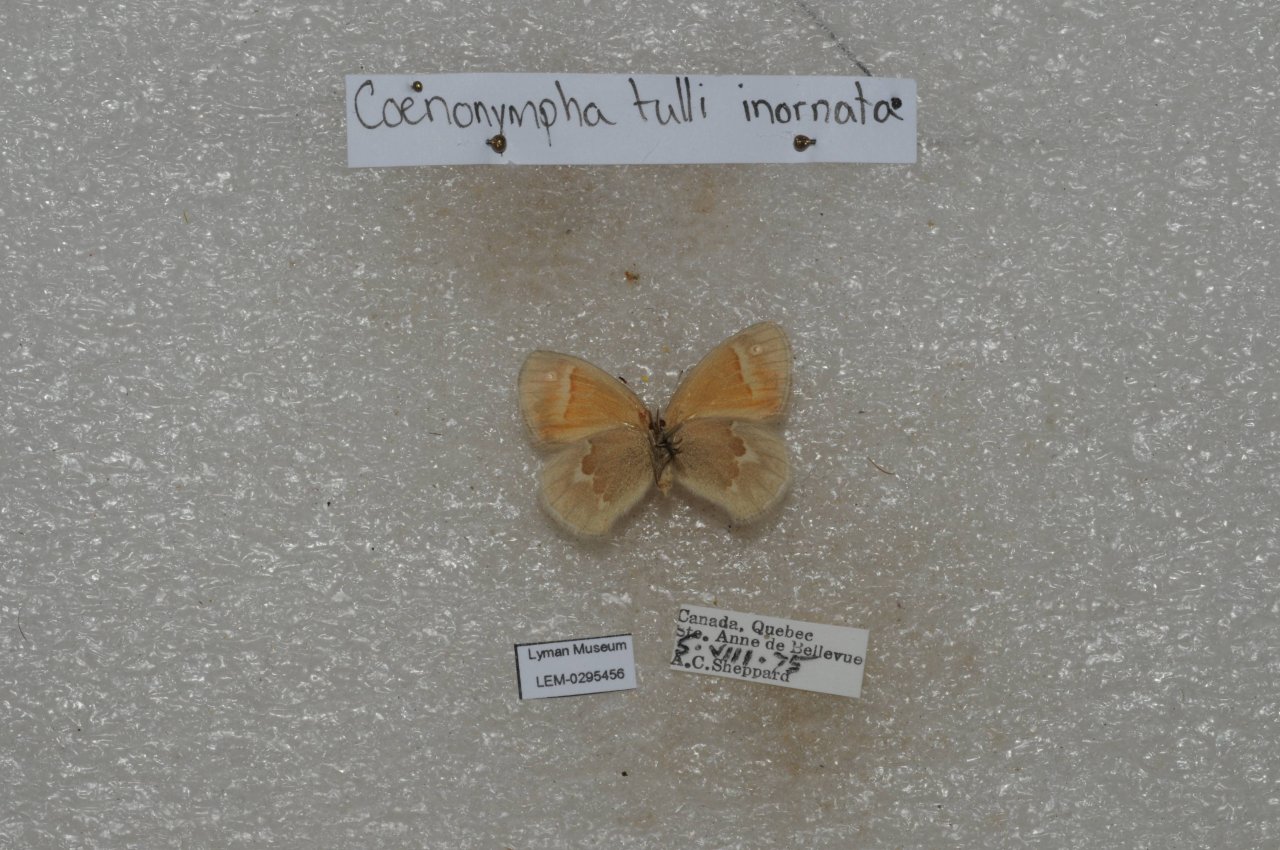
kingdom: Animalia
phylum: Arthropoda
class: Insecta
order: Lepidoptera
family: Nymphalidae
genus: Coenonympha
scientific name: Coenonympha tullia
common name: Large Heath
